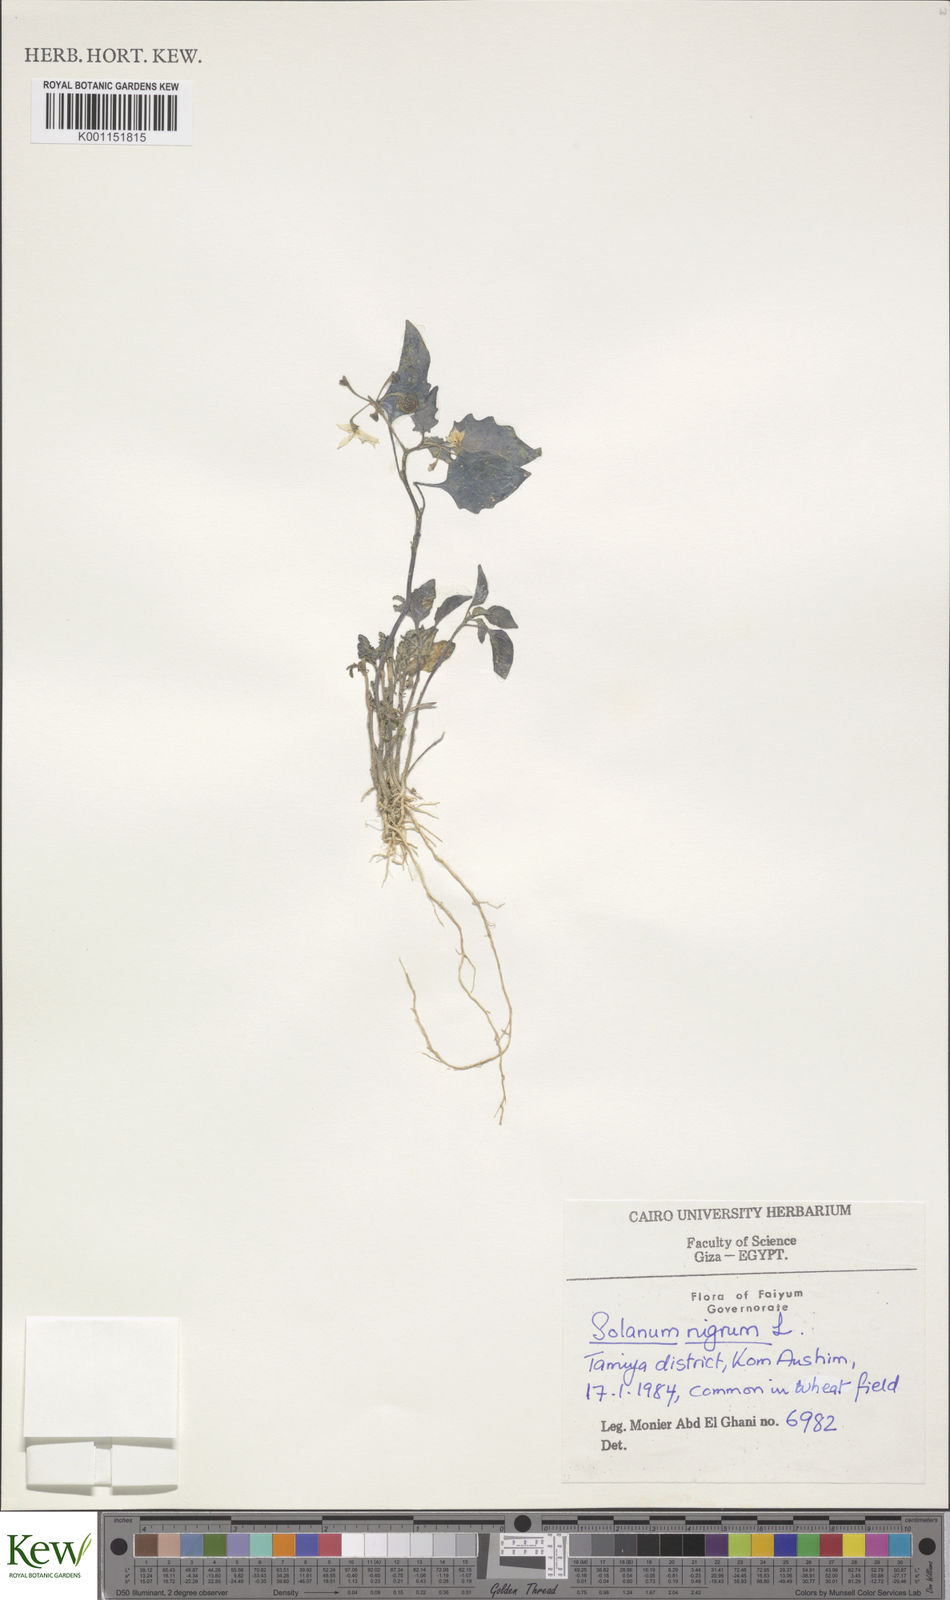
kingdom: Plantae
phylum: Tracheophyta
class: Magnoliopsida
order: Solanales
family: Solanaceae
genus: Solanum
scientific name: Solanum nigrum
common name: Black nightshade
